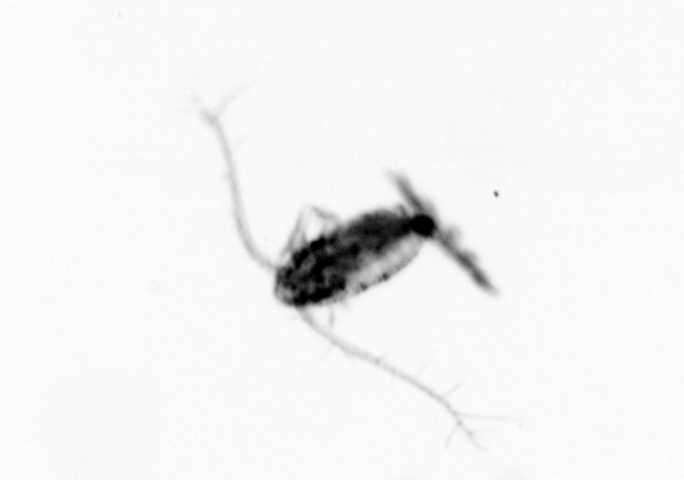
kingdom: Animalia
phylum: Arthropoda
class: Copepoda
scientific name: Copepoda
